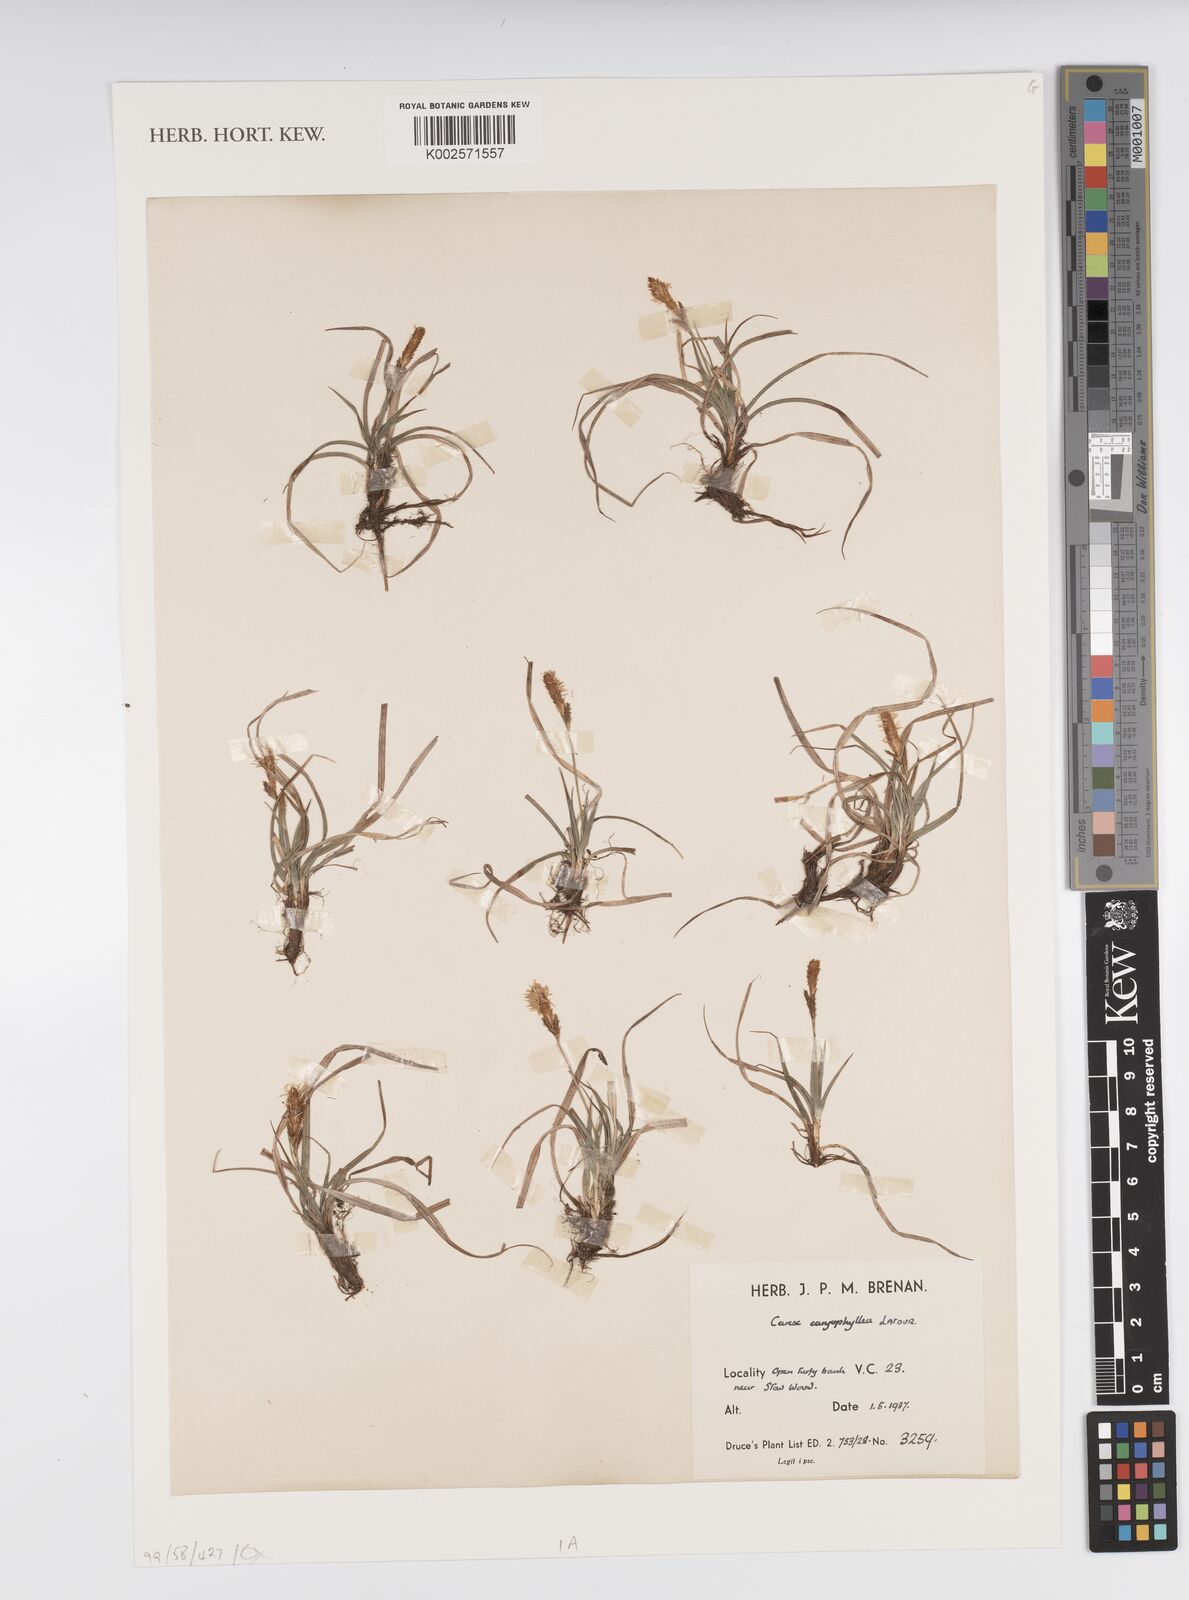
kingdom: Plantae
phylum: Tracheophyta
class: Liliopsida
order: Poales
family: Cyperaceae
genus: Carex
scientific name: Carex caryophyllea
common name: Spring sedge
